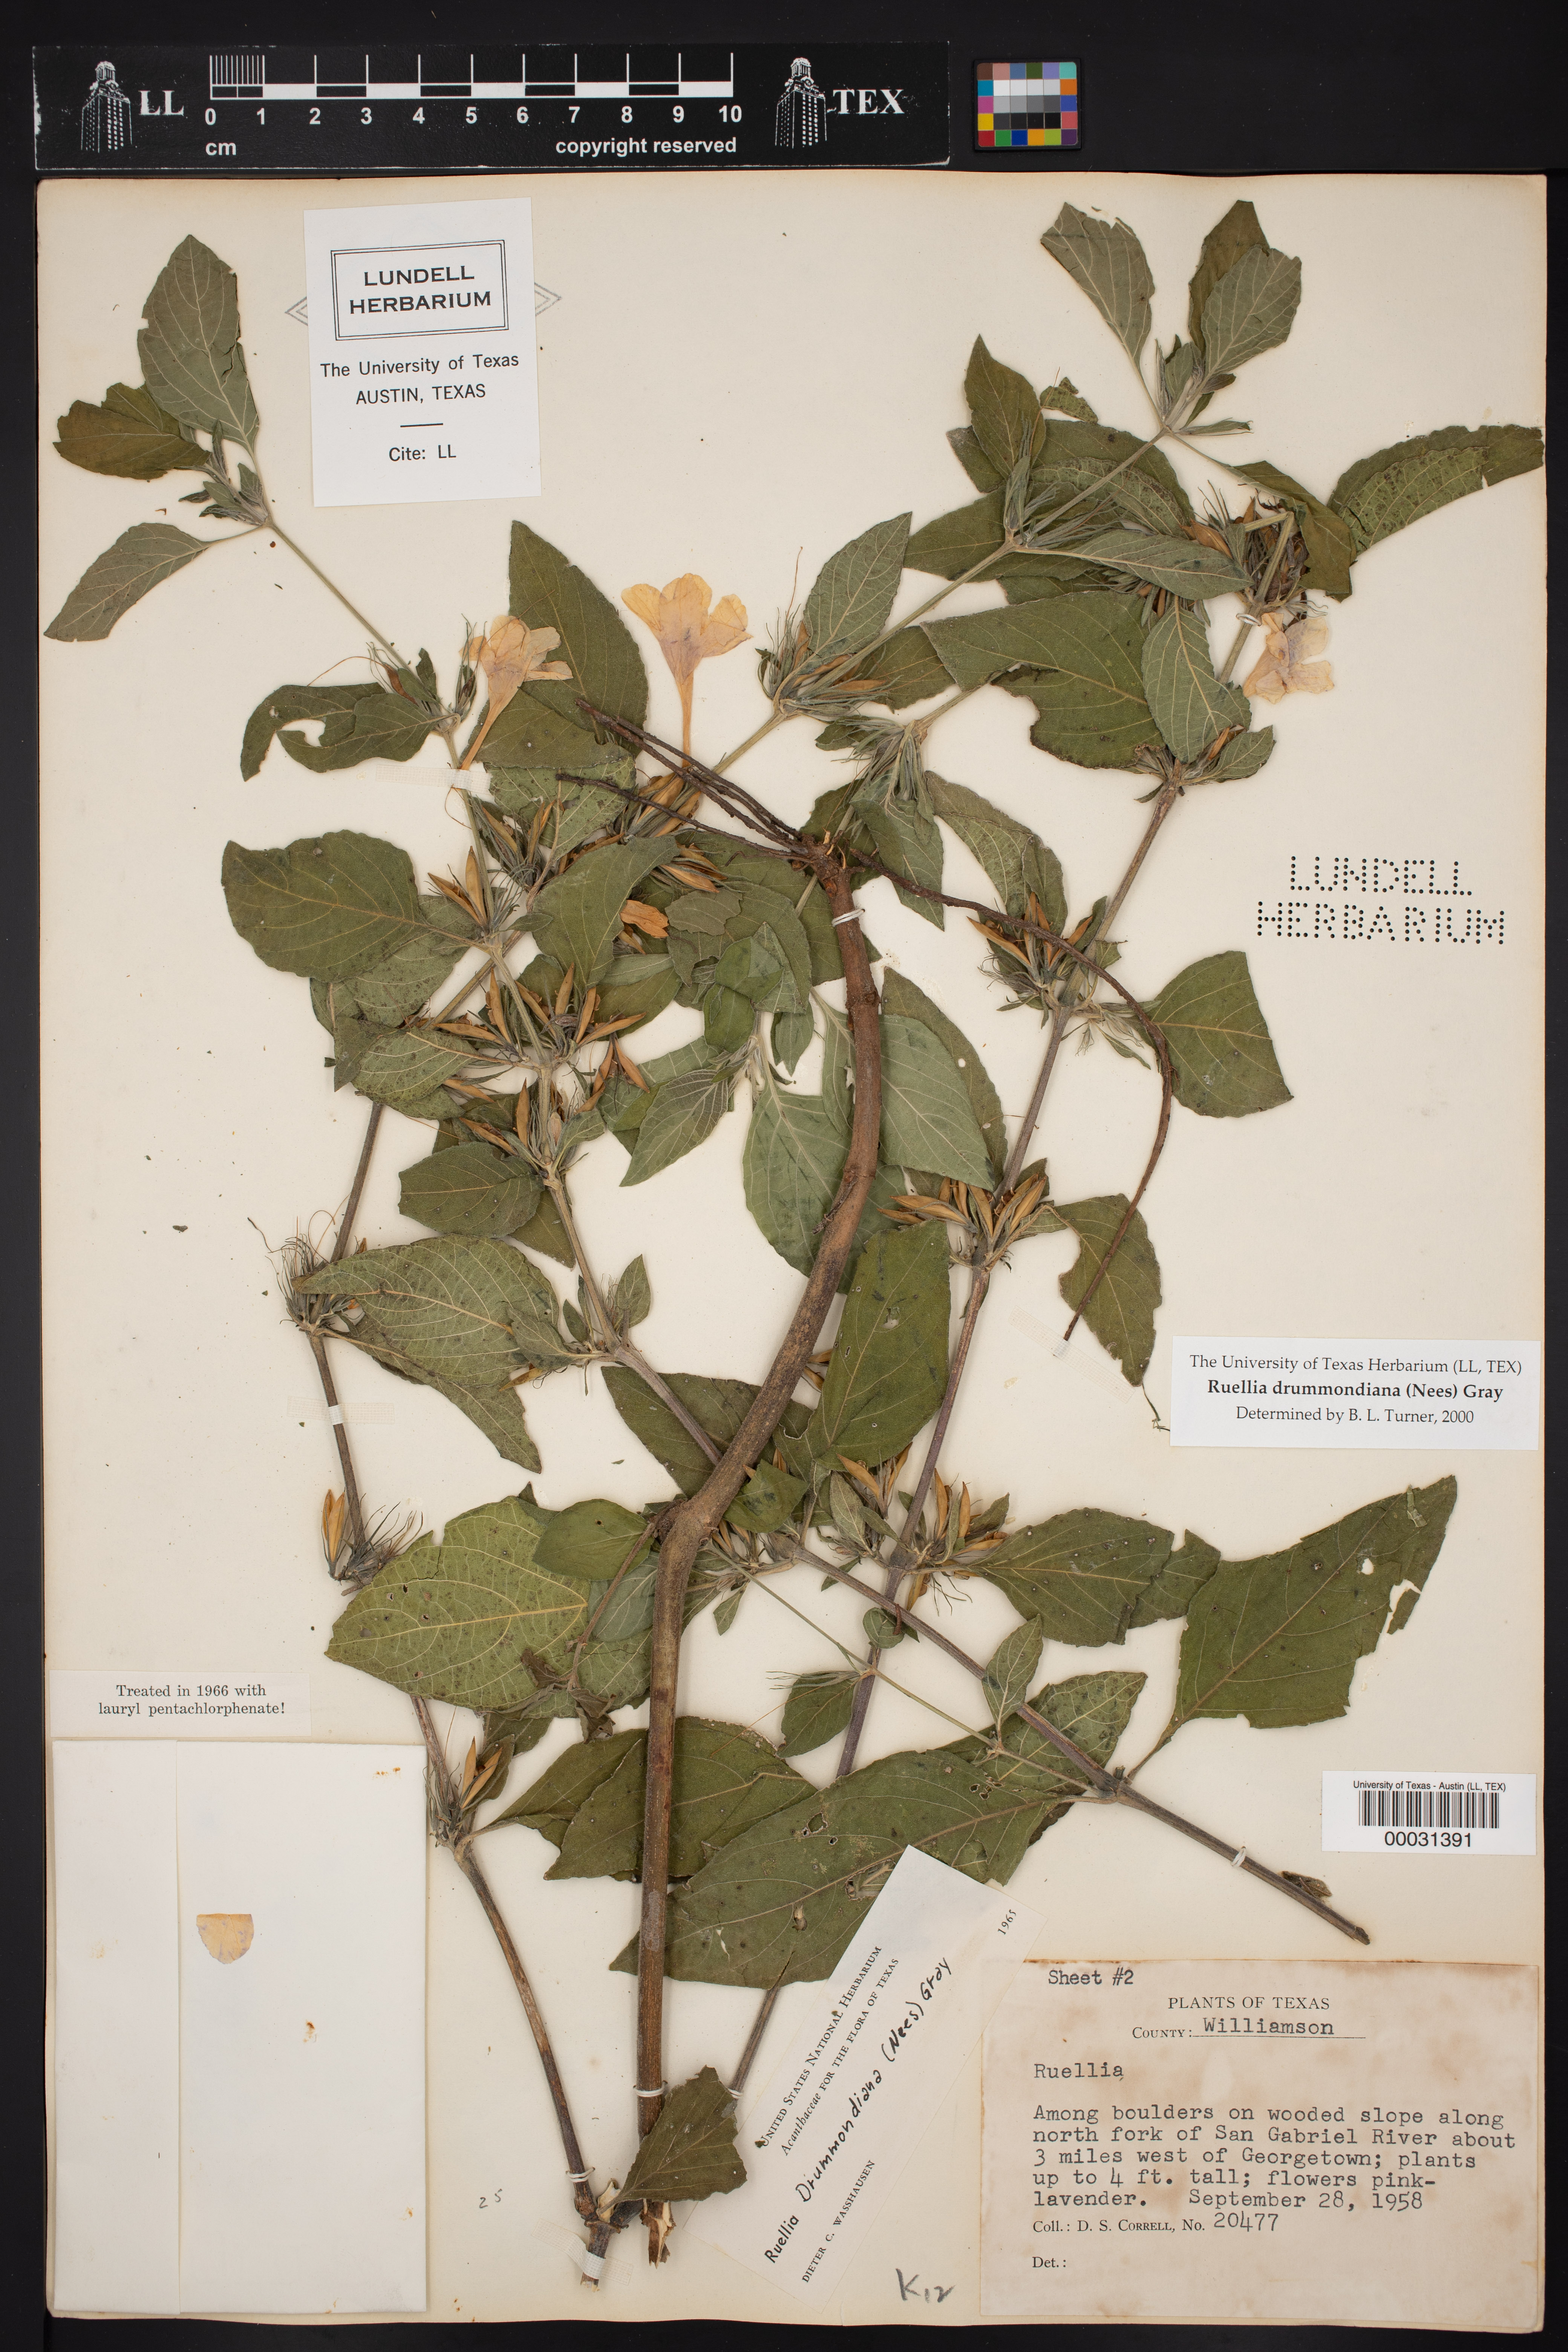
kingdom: Plantae
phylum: Tracheophyta
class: Magnoliopsida
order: Lamiales
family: Acanthaceae
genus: Ruellia
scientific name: Ruellia drummondiana
